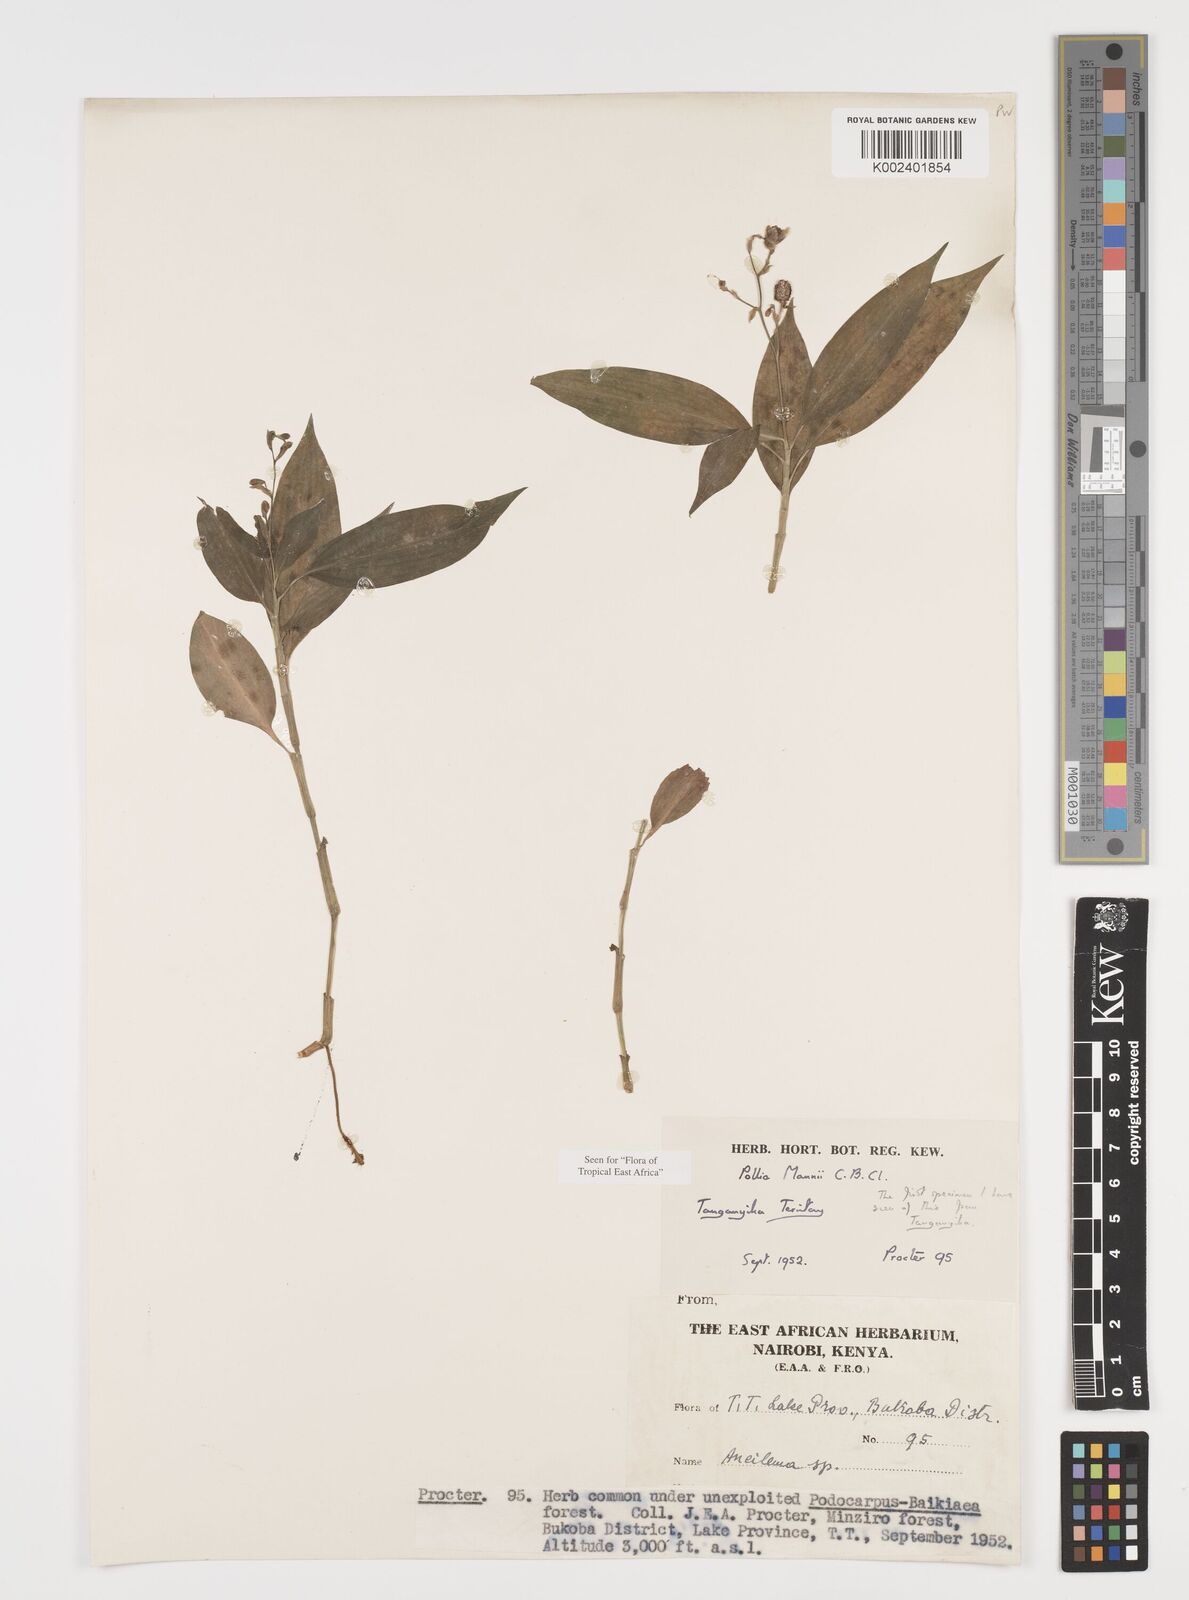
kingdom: Plantae
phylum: Tracheophyta
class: Liliopsida
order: Commelinales
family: Commelinaceae
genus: Pollia
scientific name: Pollia mannii
